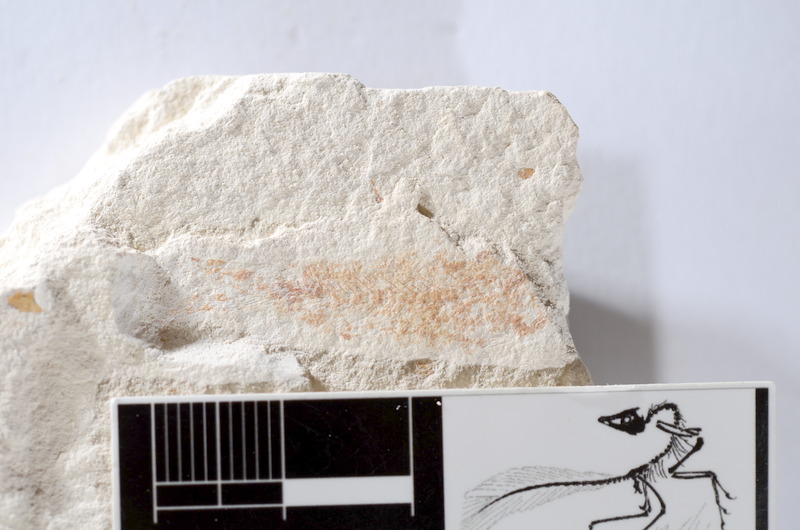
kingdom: Animalia
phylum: Chordata
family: Ascalaboidae
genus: Tharsis
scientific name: Tharsis dubius
